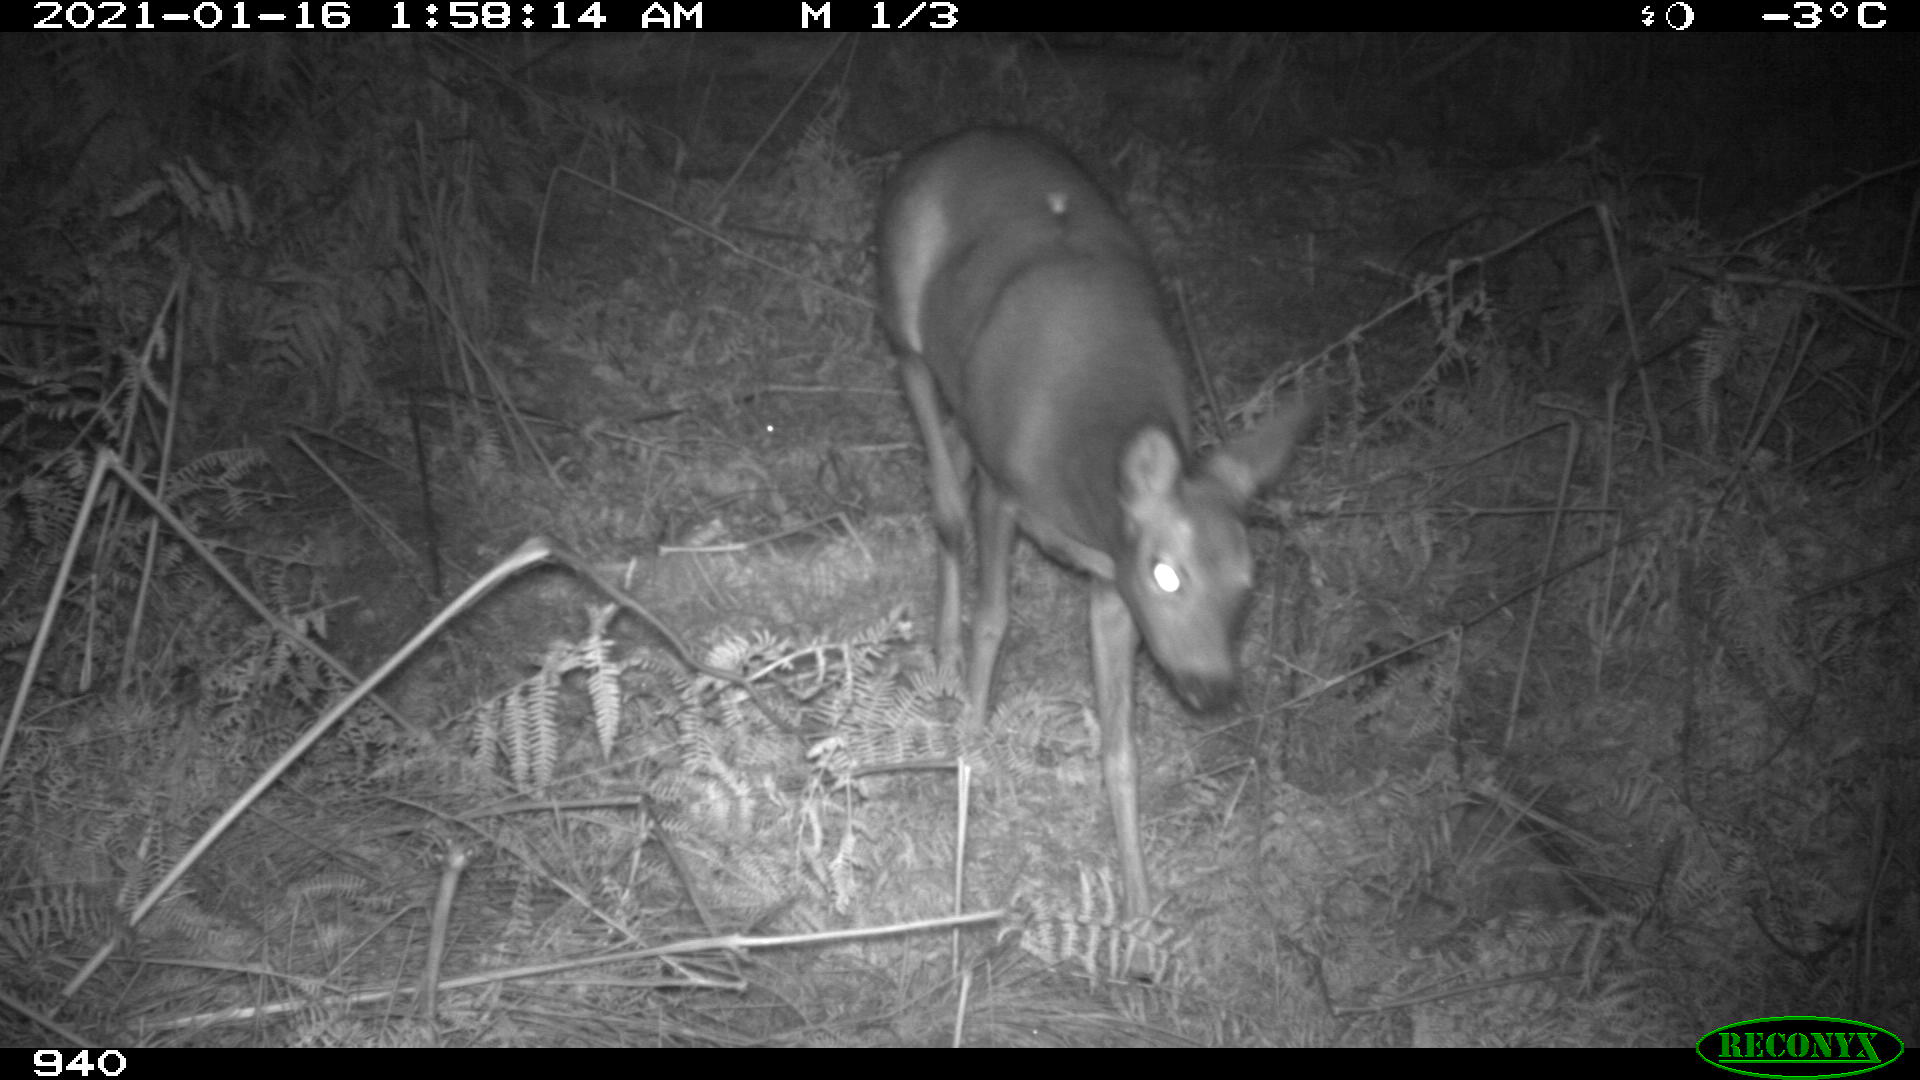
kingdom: Animalia
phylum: Chordata
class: Mammalia
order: Artiodactyla
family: Cervidae
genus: Capreolus
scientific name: Capreolus capreolus
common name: Western roe deer
